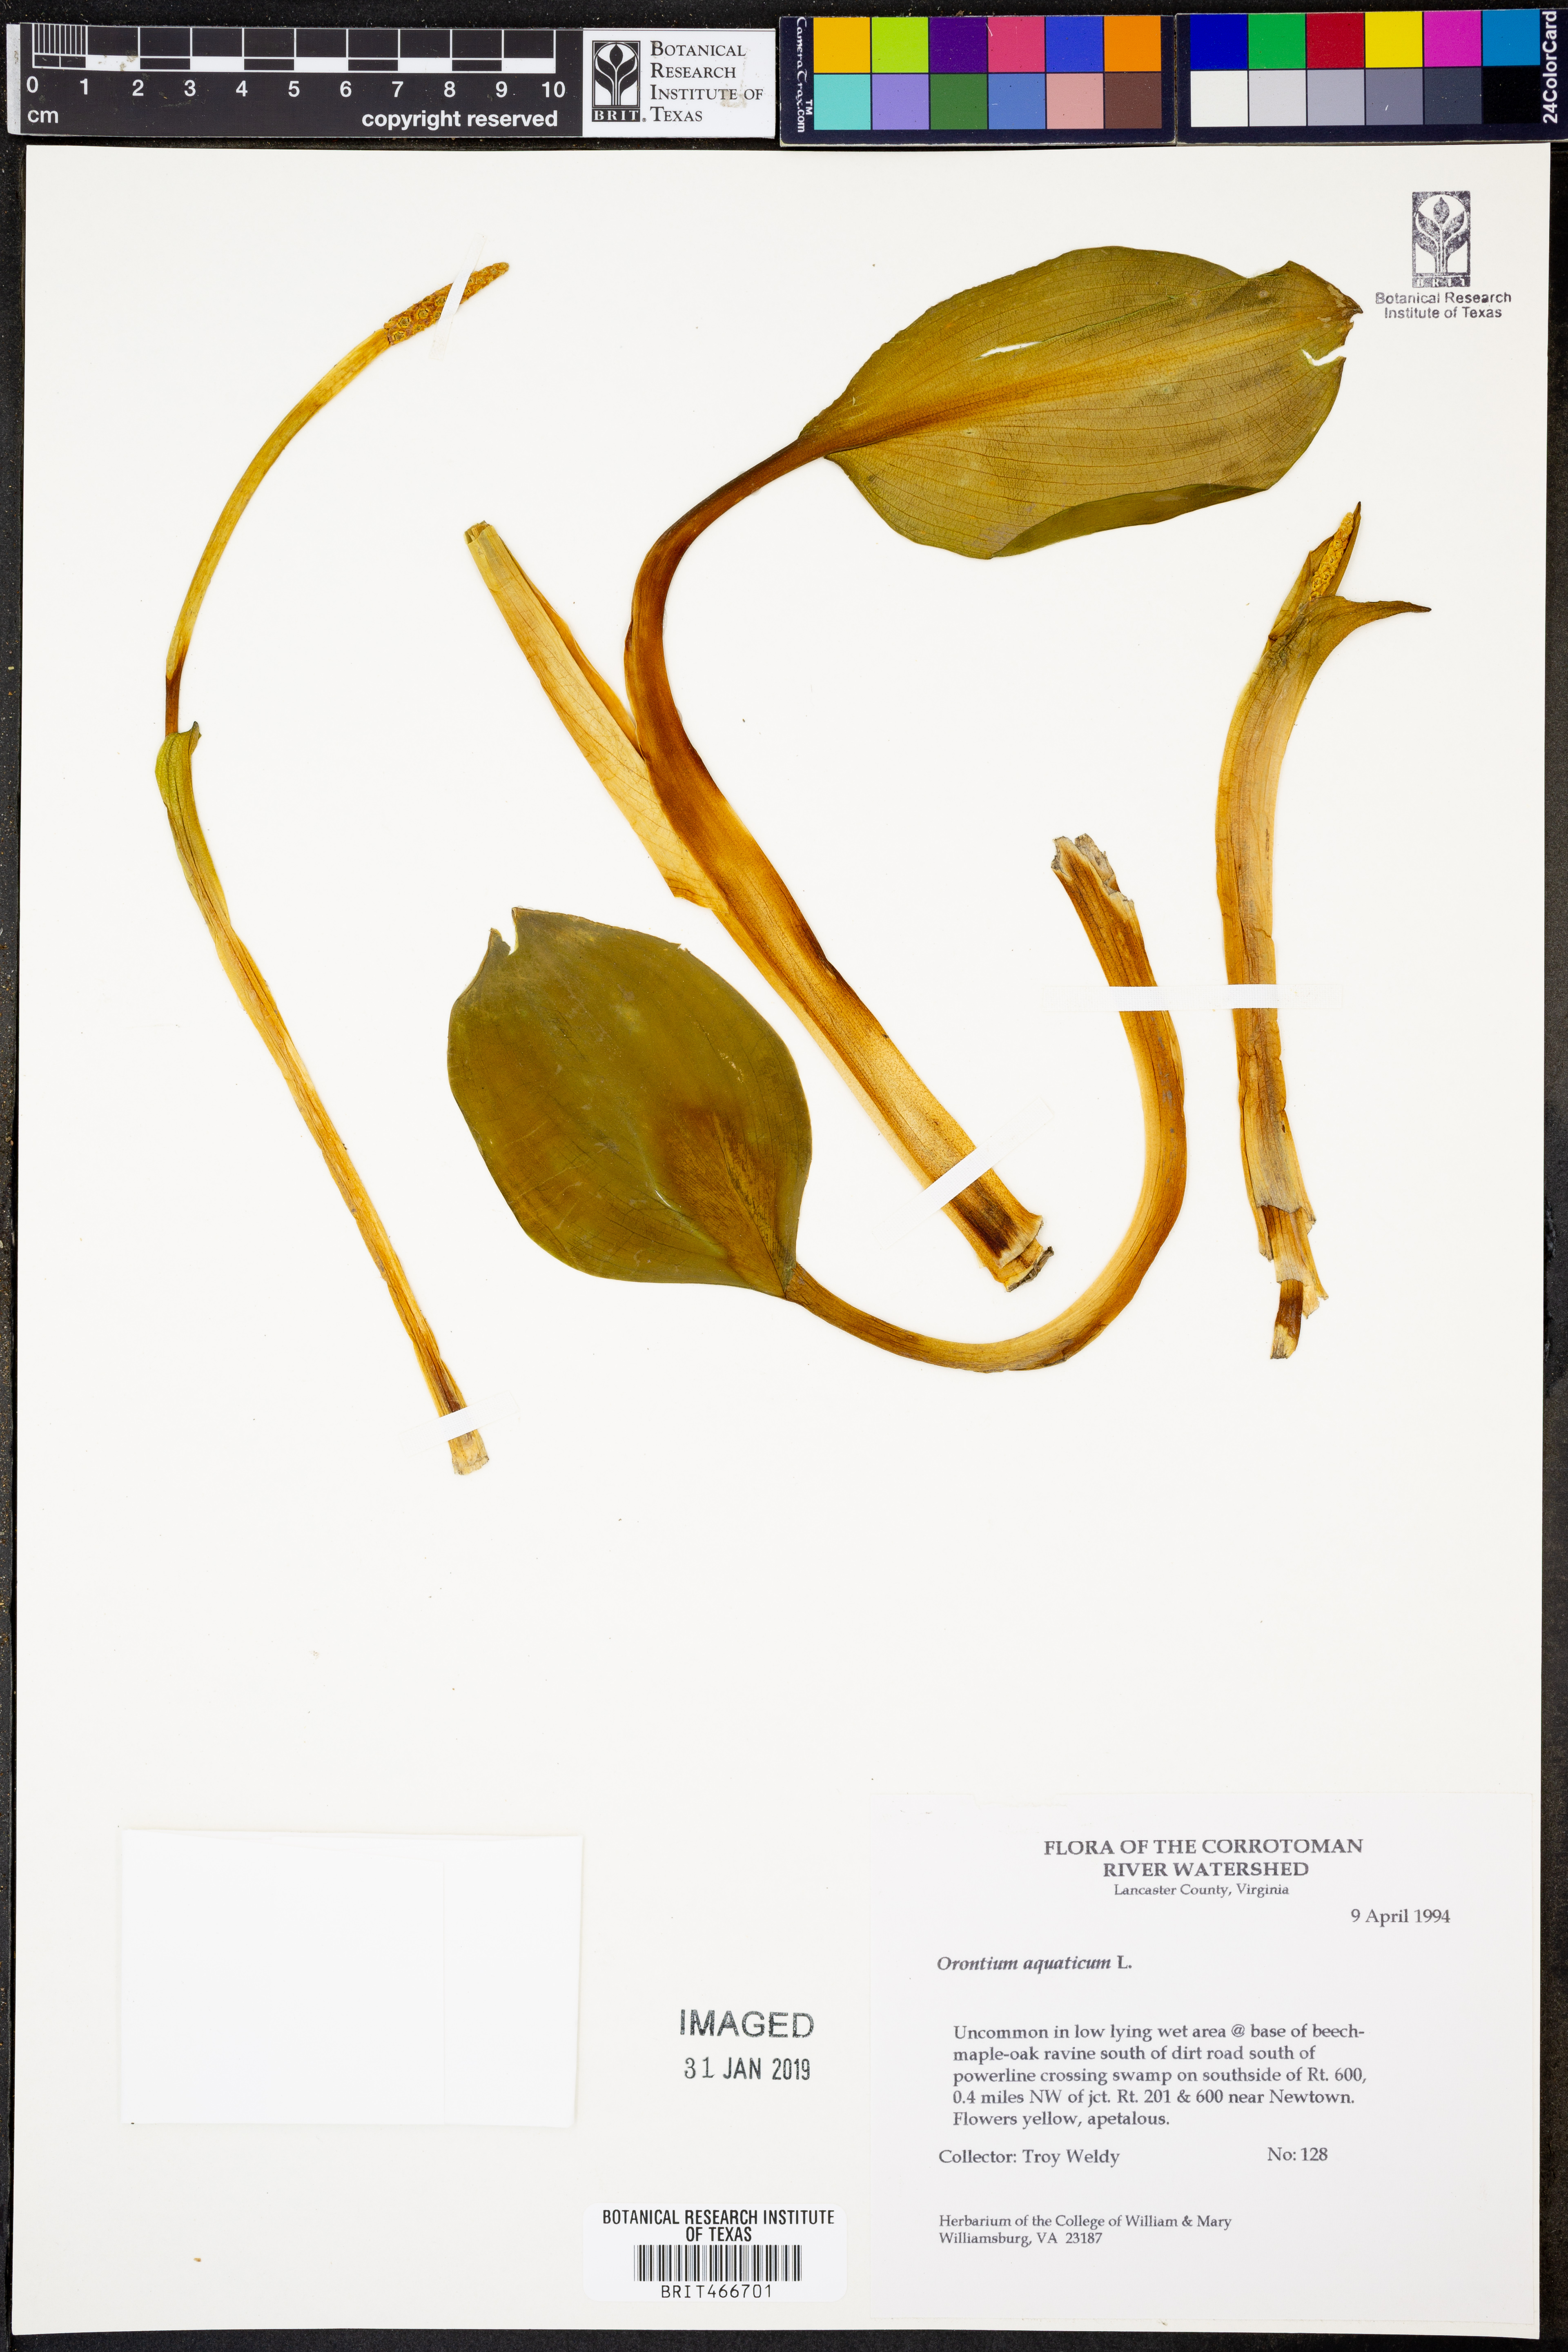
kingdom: Plantae
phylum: Tracheophyta
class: Liliopsida
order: Alismatales
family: Araceae
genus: Orontium
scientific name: Orontium aquaticum
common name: Golden-club
